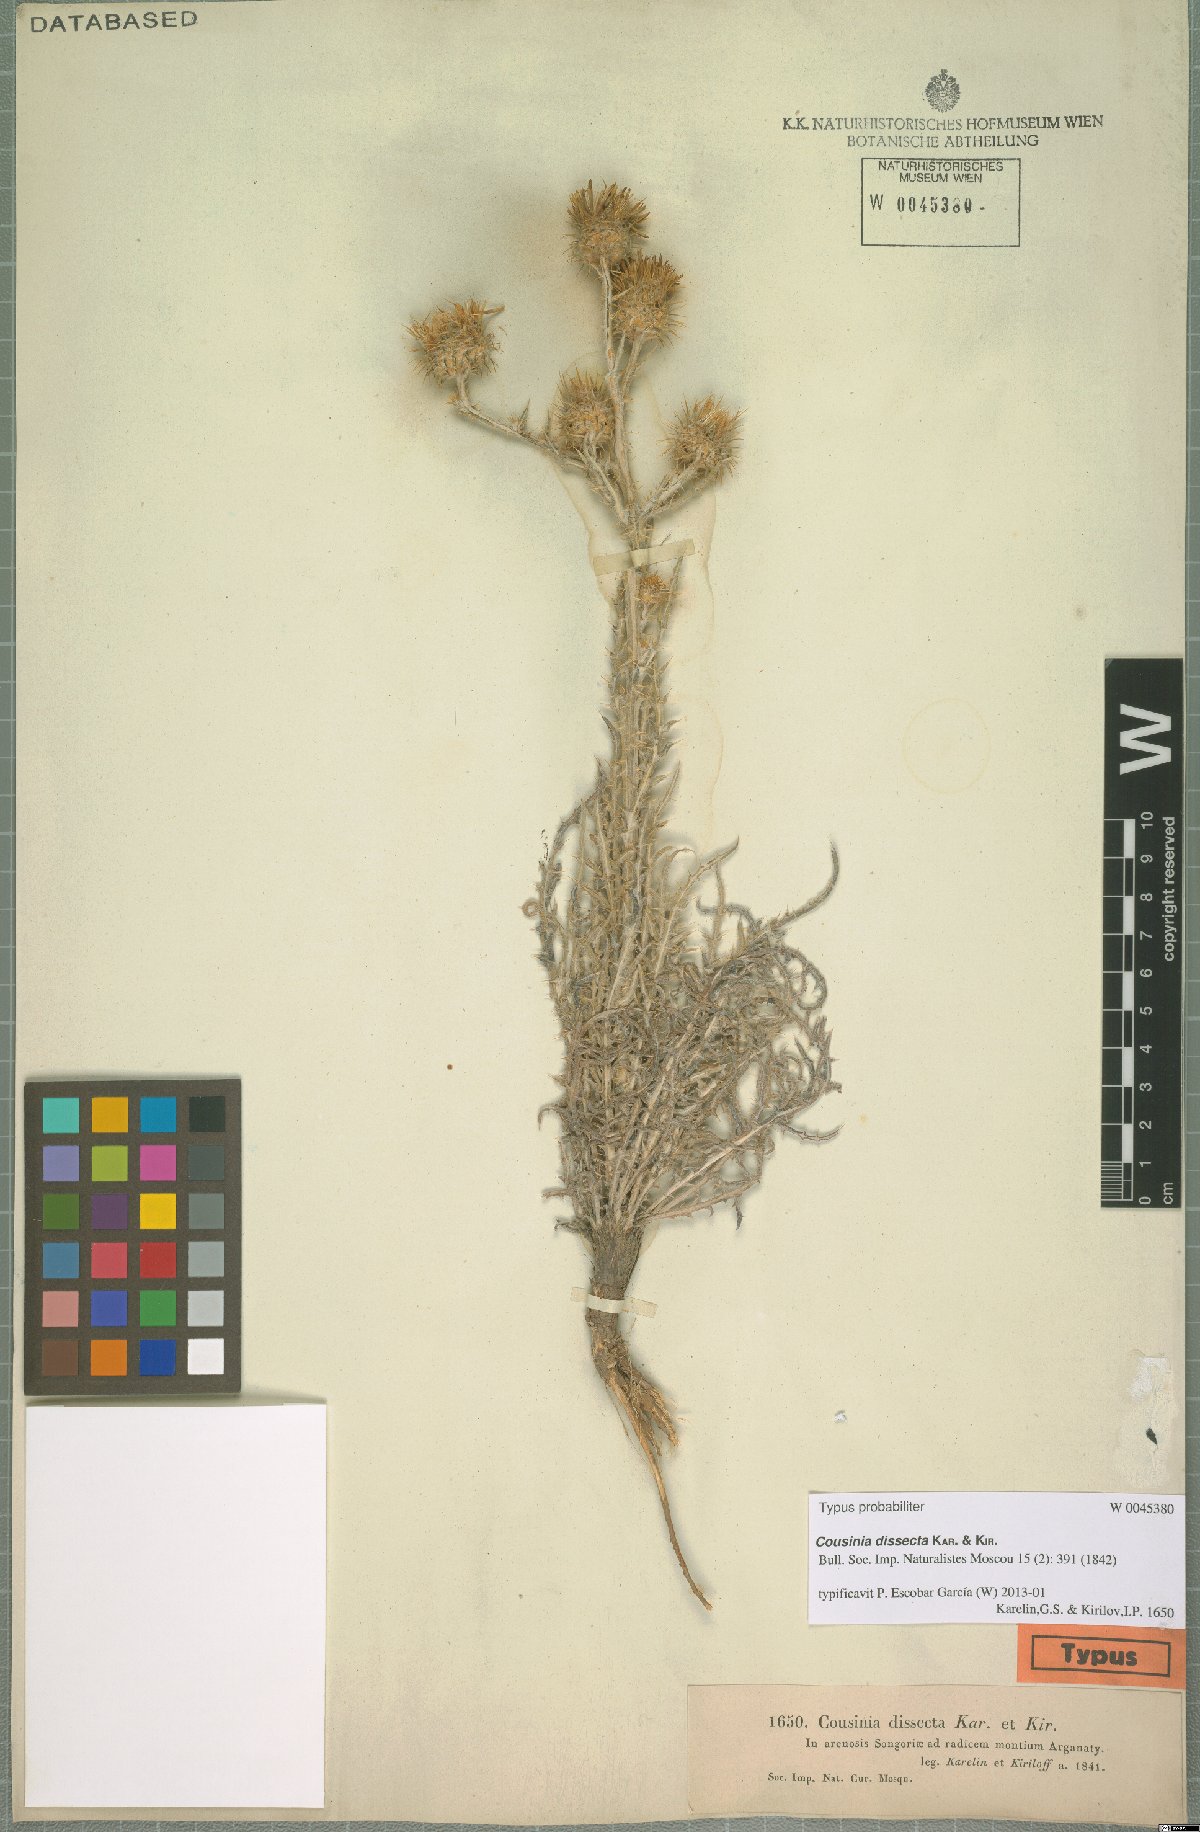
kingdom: Plantae
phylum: Tracheophyta
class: Magnoliopsida
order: Asterales
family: Asteraceae
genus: Cousinia
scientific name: Cousinia dissecta
